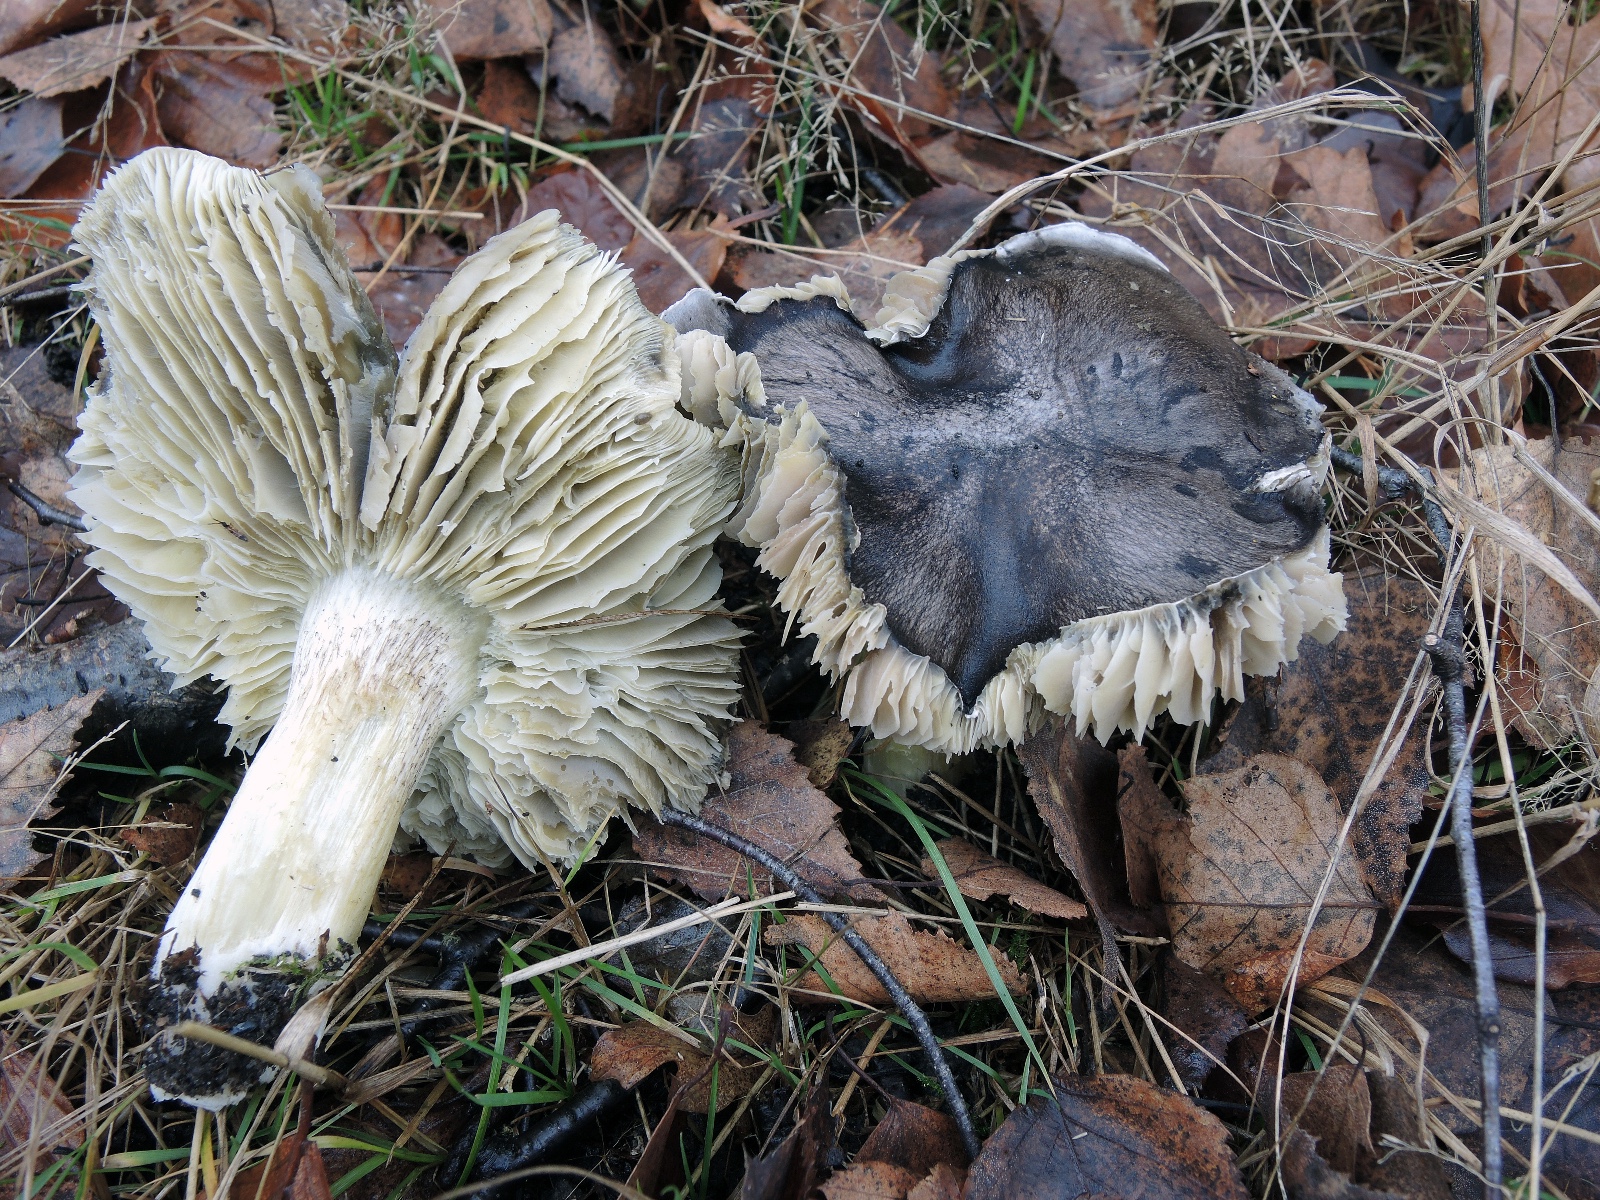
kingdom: Fungi
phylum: Basidiomycota
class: Agaricomycetes
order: Agaricales
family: Tricholomataceae
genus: Tricholoma
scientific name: Tricholoma portentosum
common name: grå ridderhat
